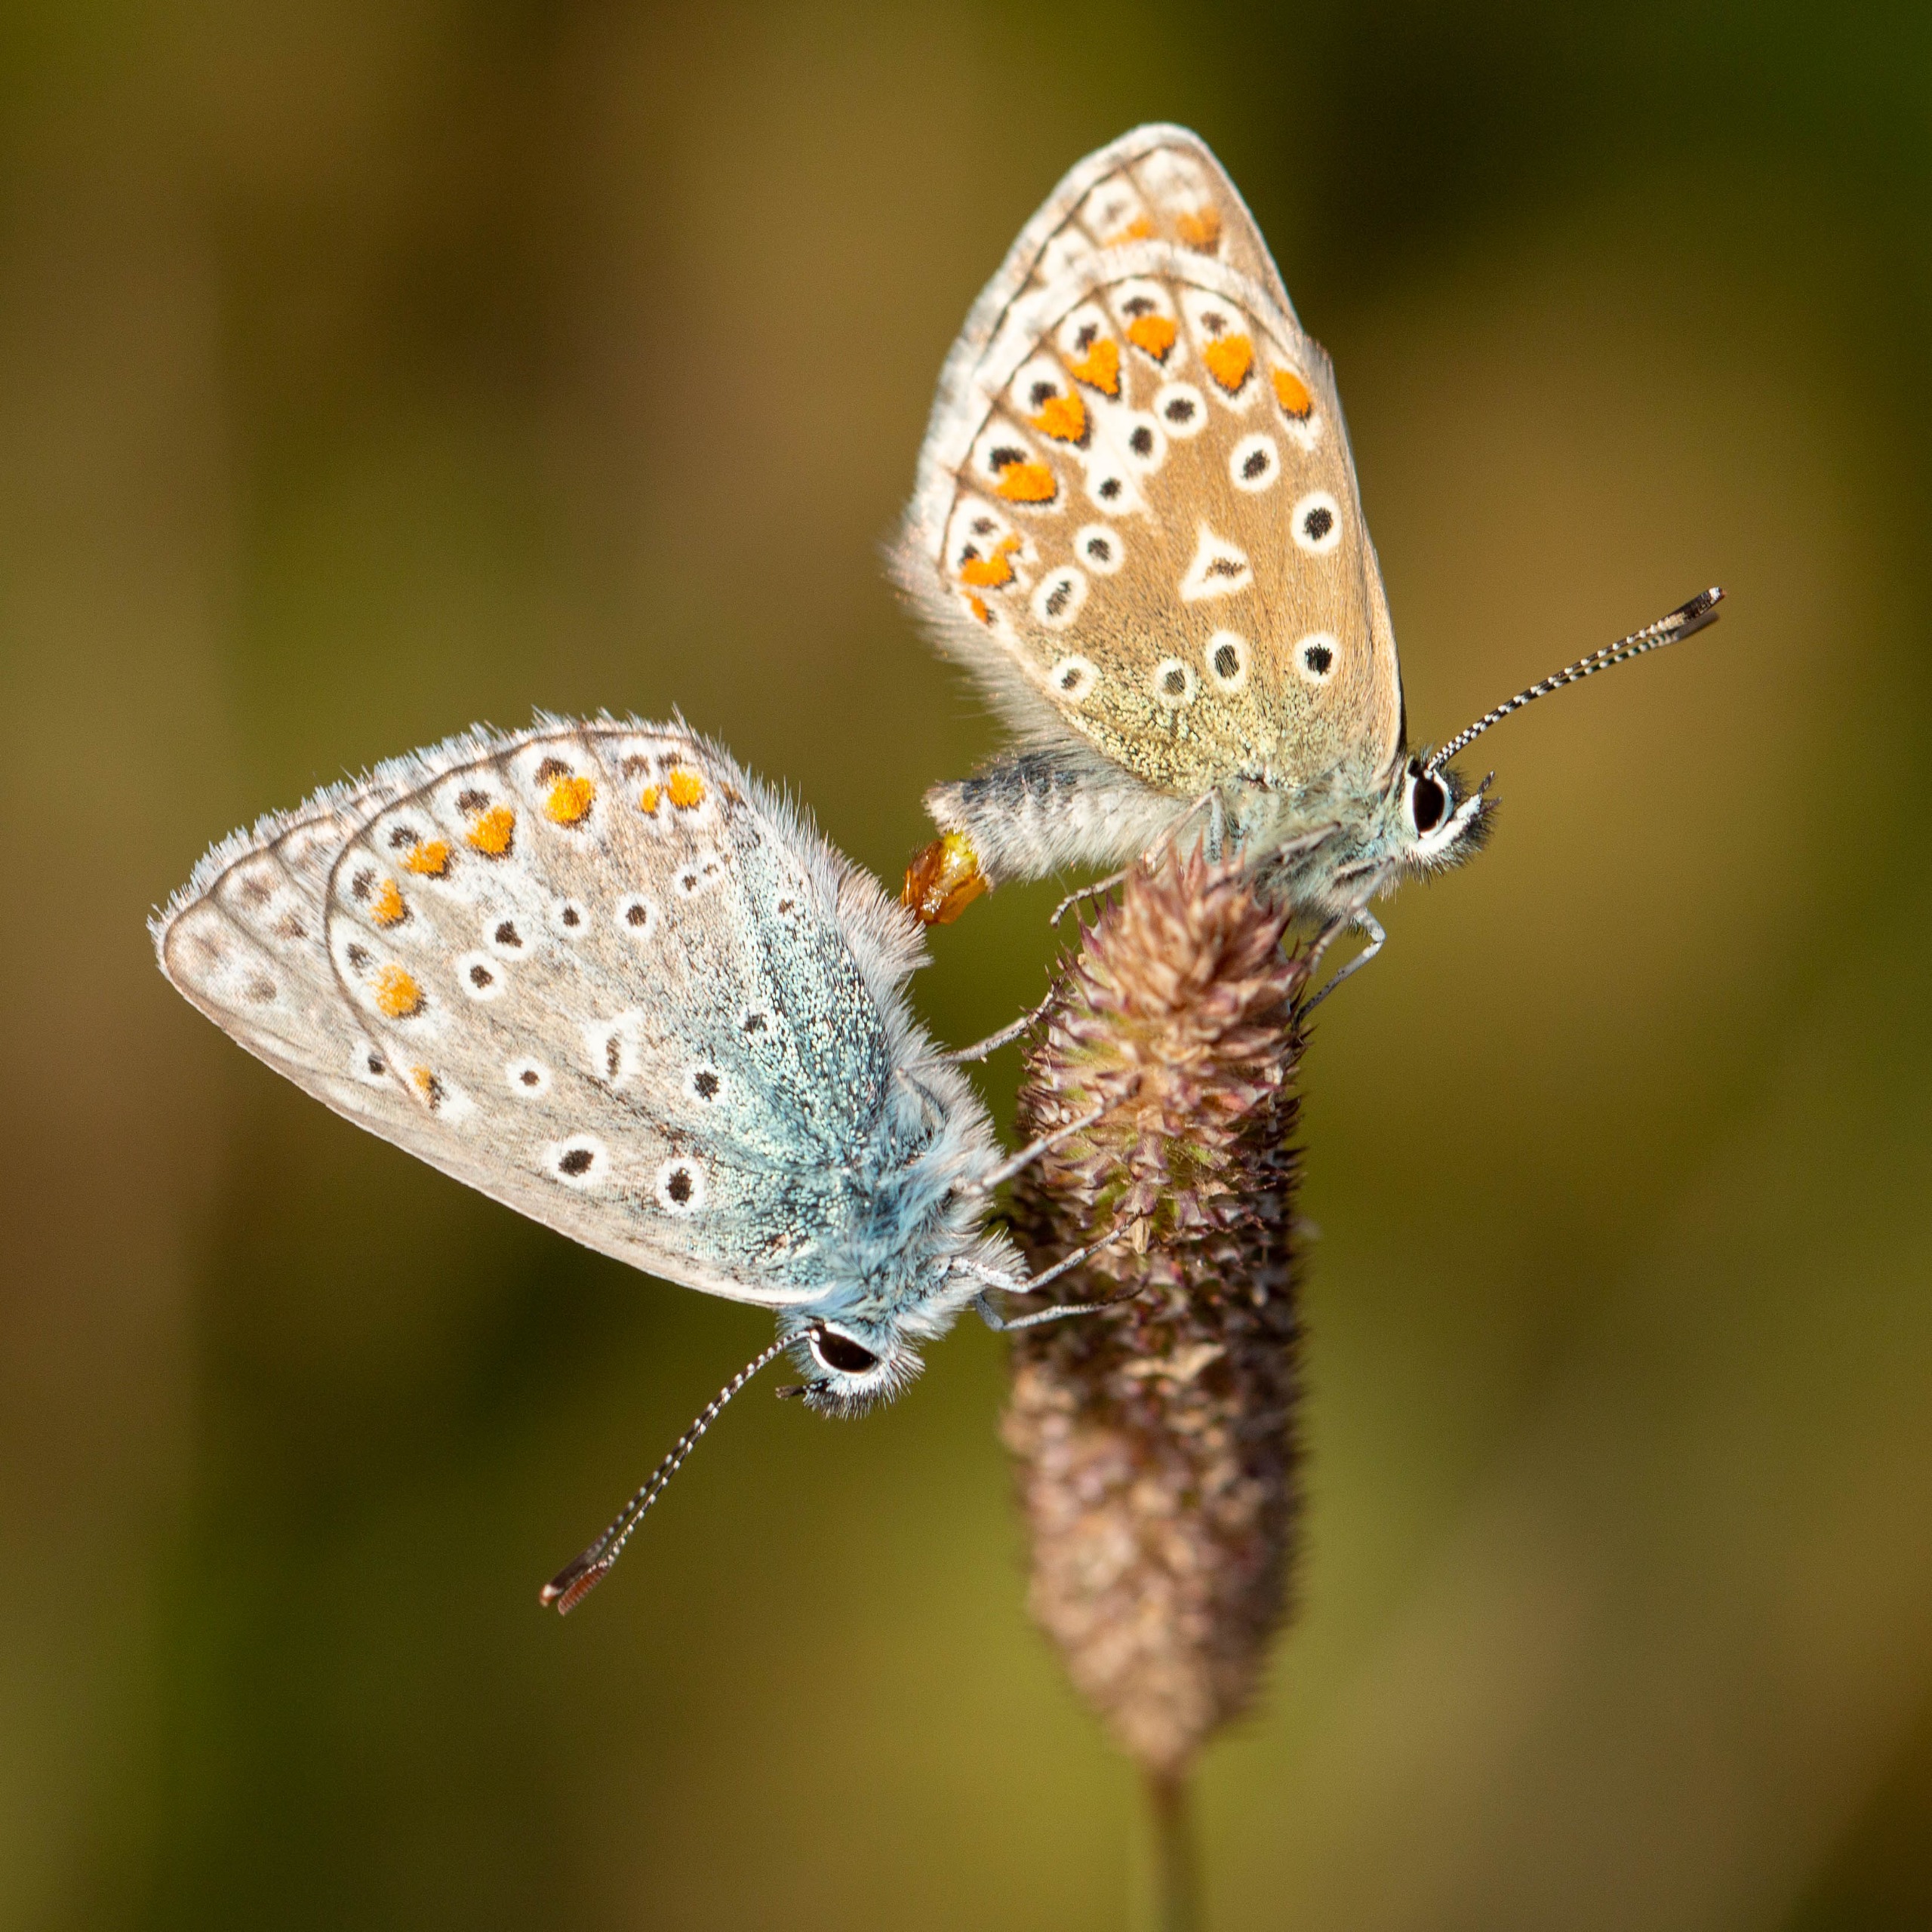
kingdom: Animalia
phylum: Arthropoda
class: Insecta
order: Lepidoptera
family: Lycaenidae
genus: Polyommatus
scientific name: Polyommatus icarus
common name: Almindelig blåfugl
